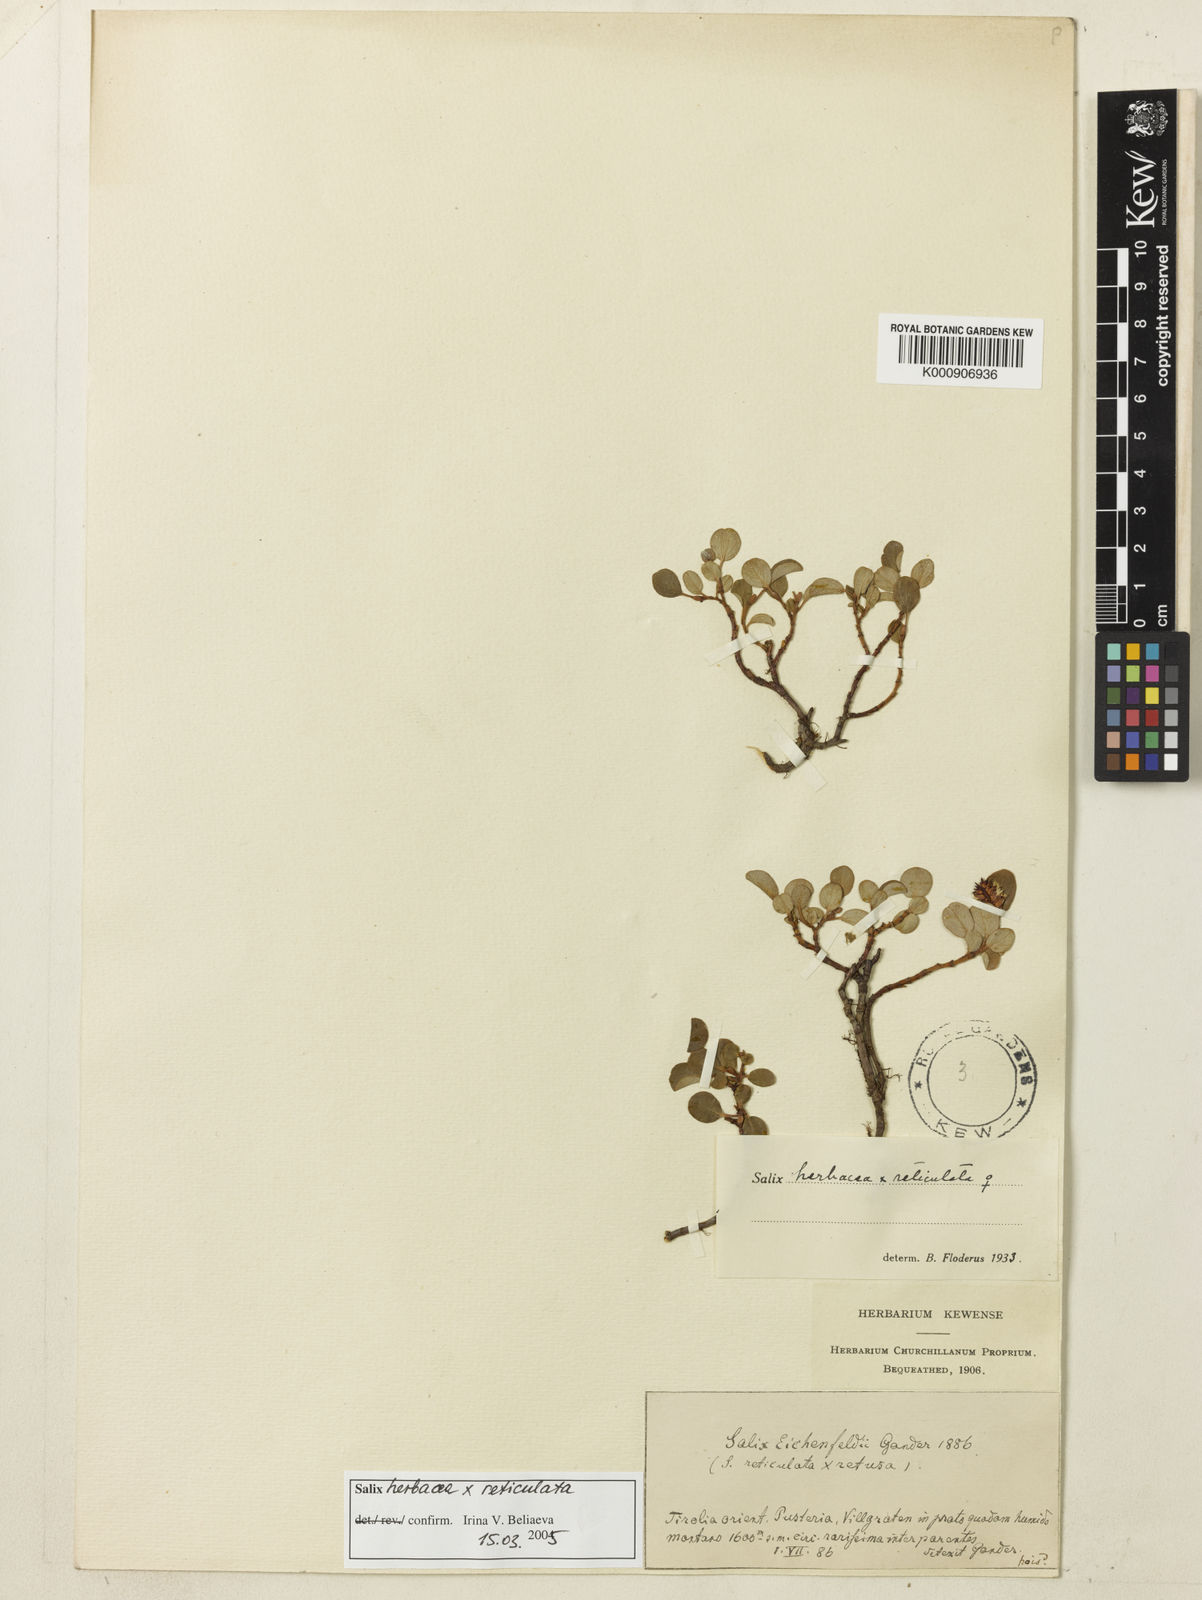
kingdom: Plantae
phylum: Tracheophyta
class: Magnoliopsida
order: Malpighiales
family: Salicaceae
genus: Salix
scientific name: Salix herbacea
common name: Dwarf willow
